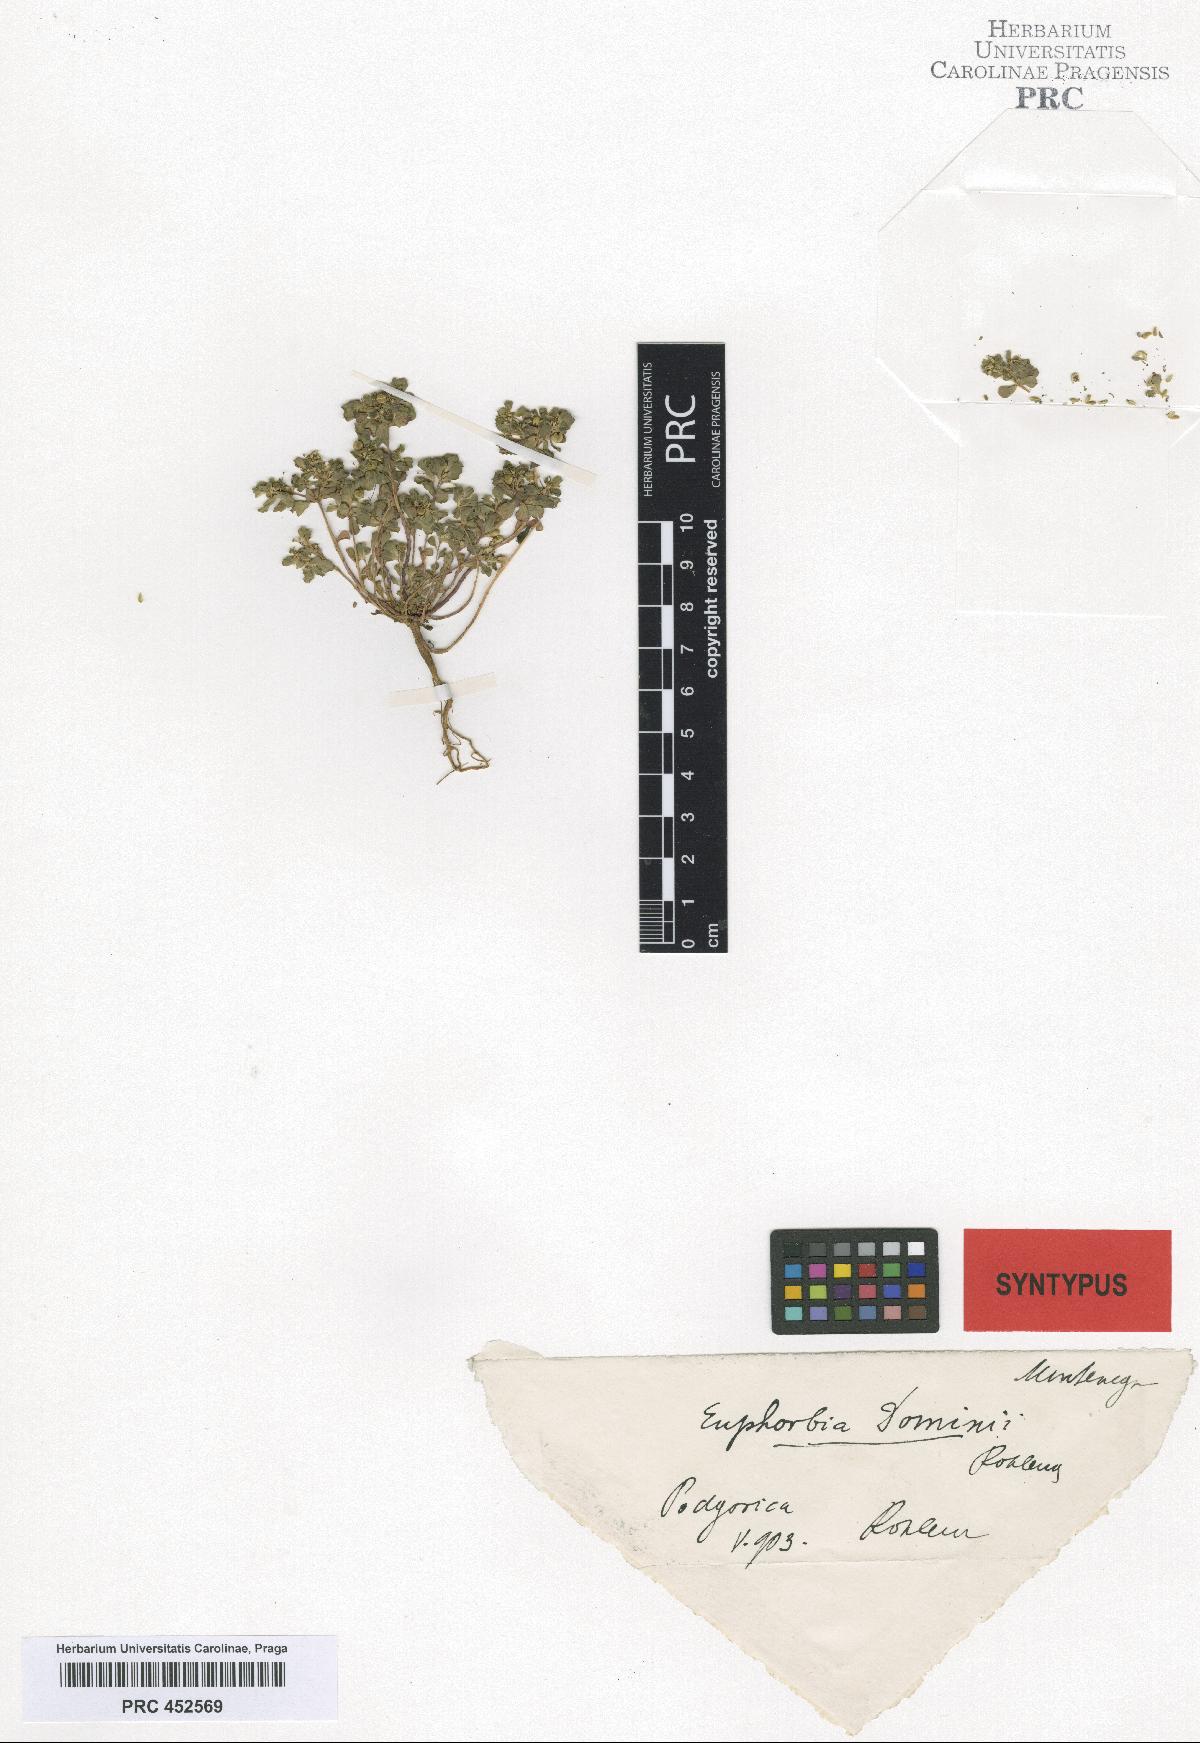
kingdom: Plantae
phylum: Tracheophyta
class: Magnoliopsida
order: Malpighiales
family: Euphorbiaceae
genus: Euphorbia
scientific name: Euphorbia helioscopia
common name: Sun spurge
